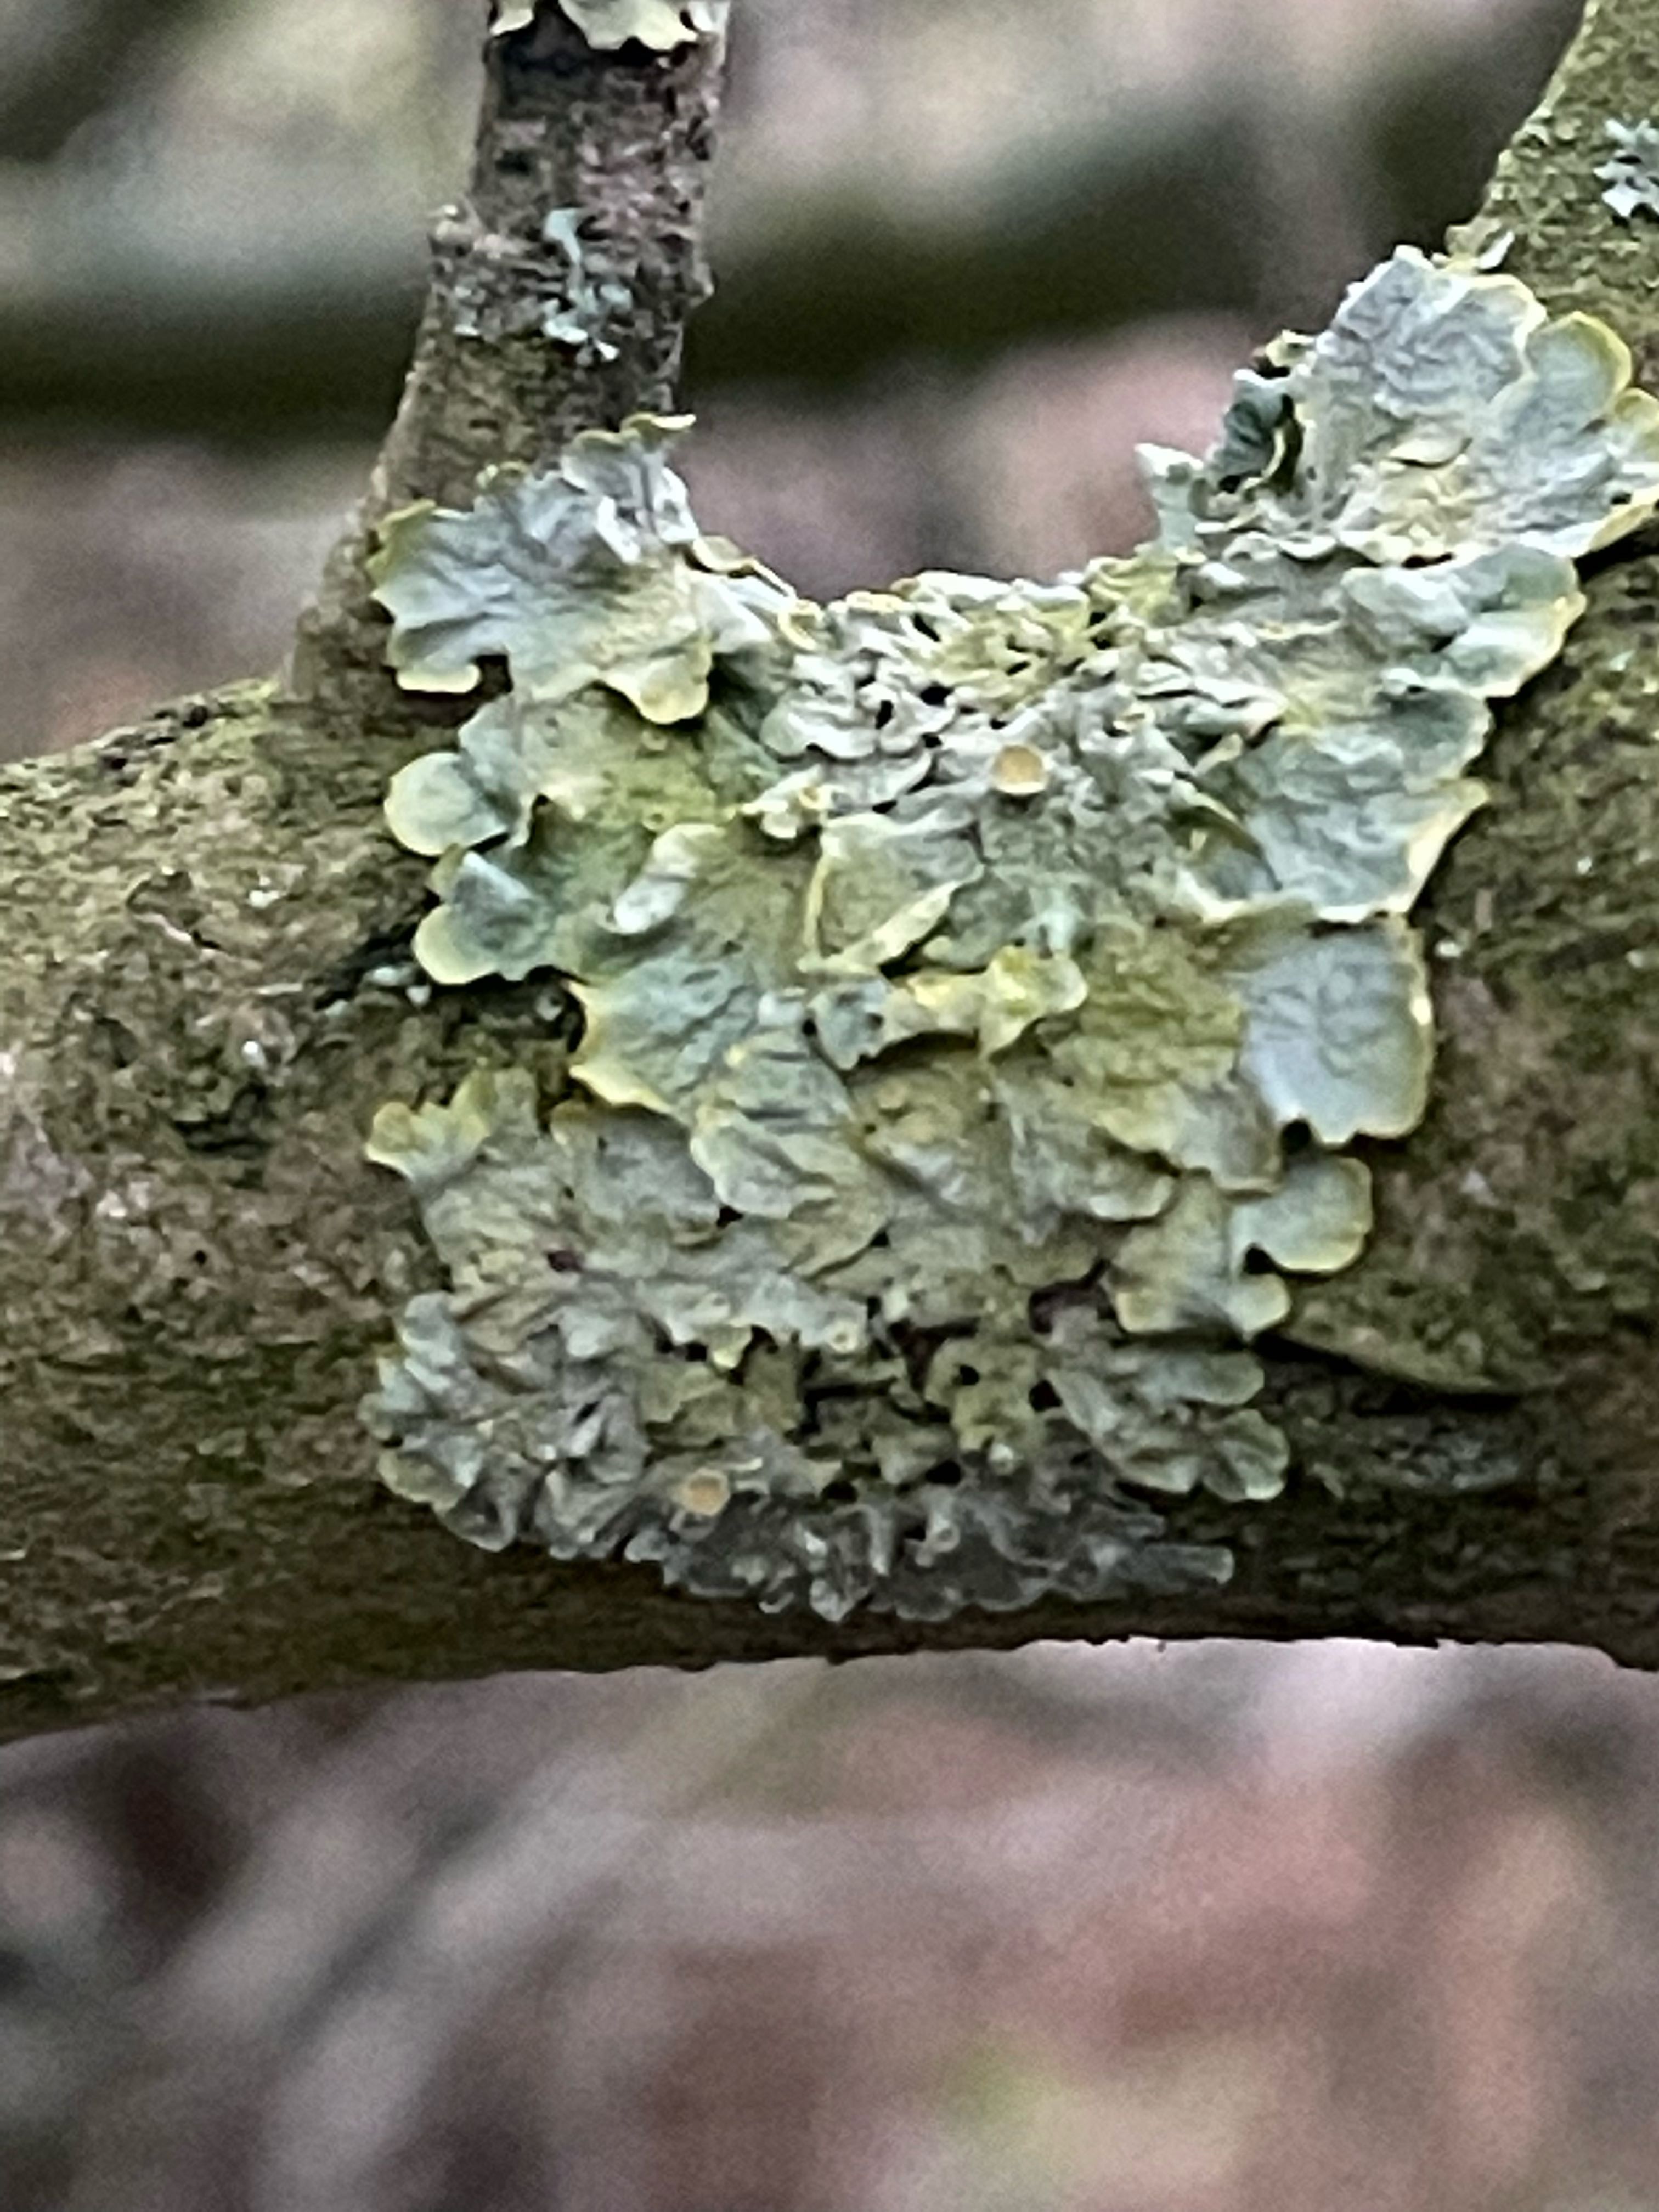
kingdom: Fungi
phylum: Ascomycota
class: Lecanoromycetes
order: Teloschistales
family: Teloschistaceae
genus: Xanthoria
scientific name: Xanthoria parietina
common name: almindelig væggelav
